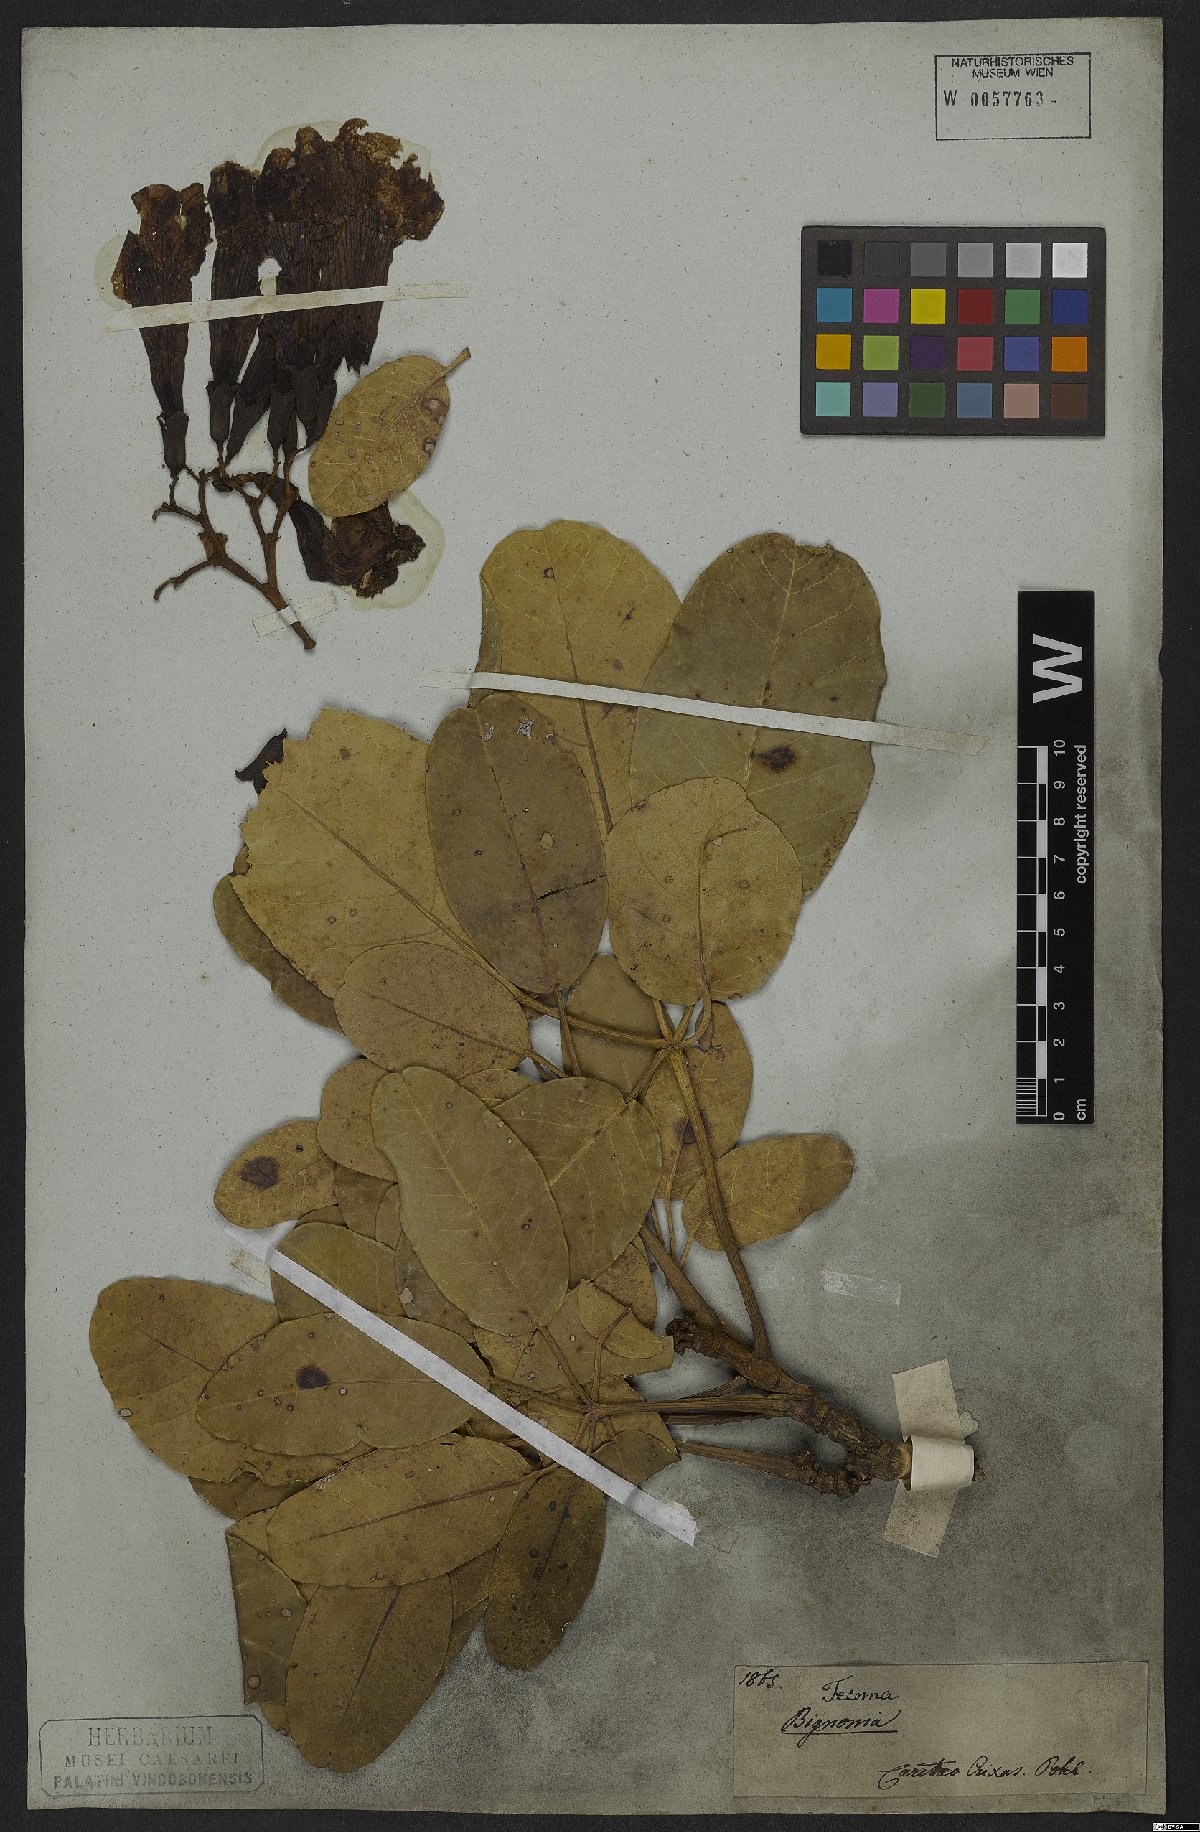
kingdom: Plantae
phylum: Tracheophyta
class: Magnoliopsida
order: Lamiales
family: Bignoniaceae
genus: Tabebuia
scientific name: Tabebuia aurea
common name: Caribbean trumpet-tree
